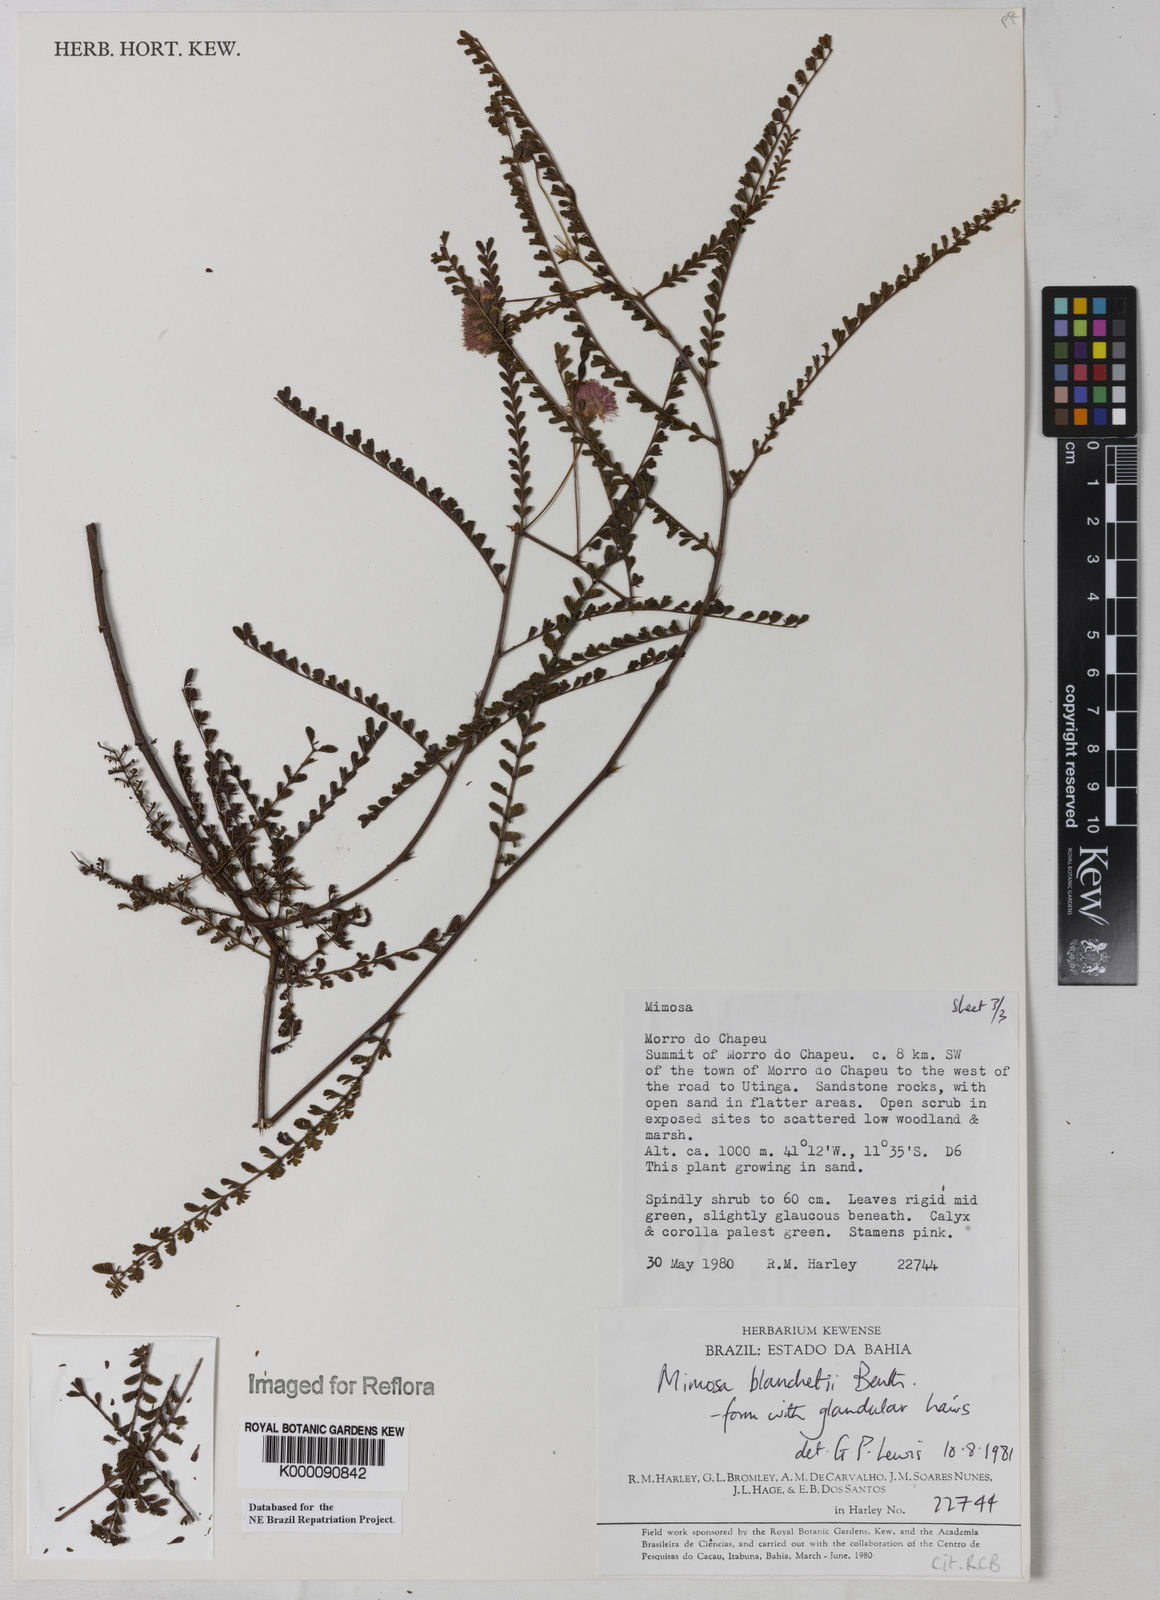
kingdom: Plantae
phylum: Tracheophyta
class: Magnoliopsida
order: Fabales
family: Fabaceae
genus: Mimosa
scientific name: Mimosa blanchetii
